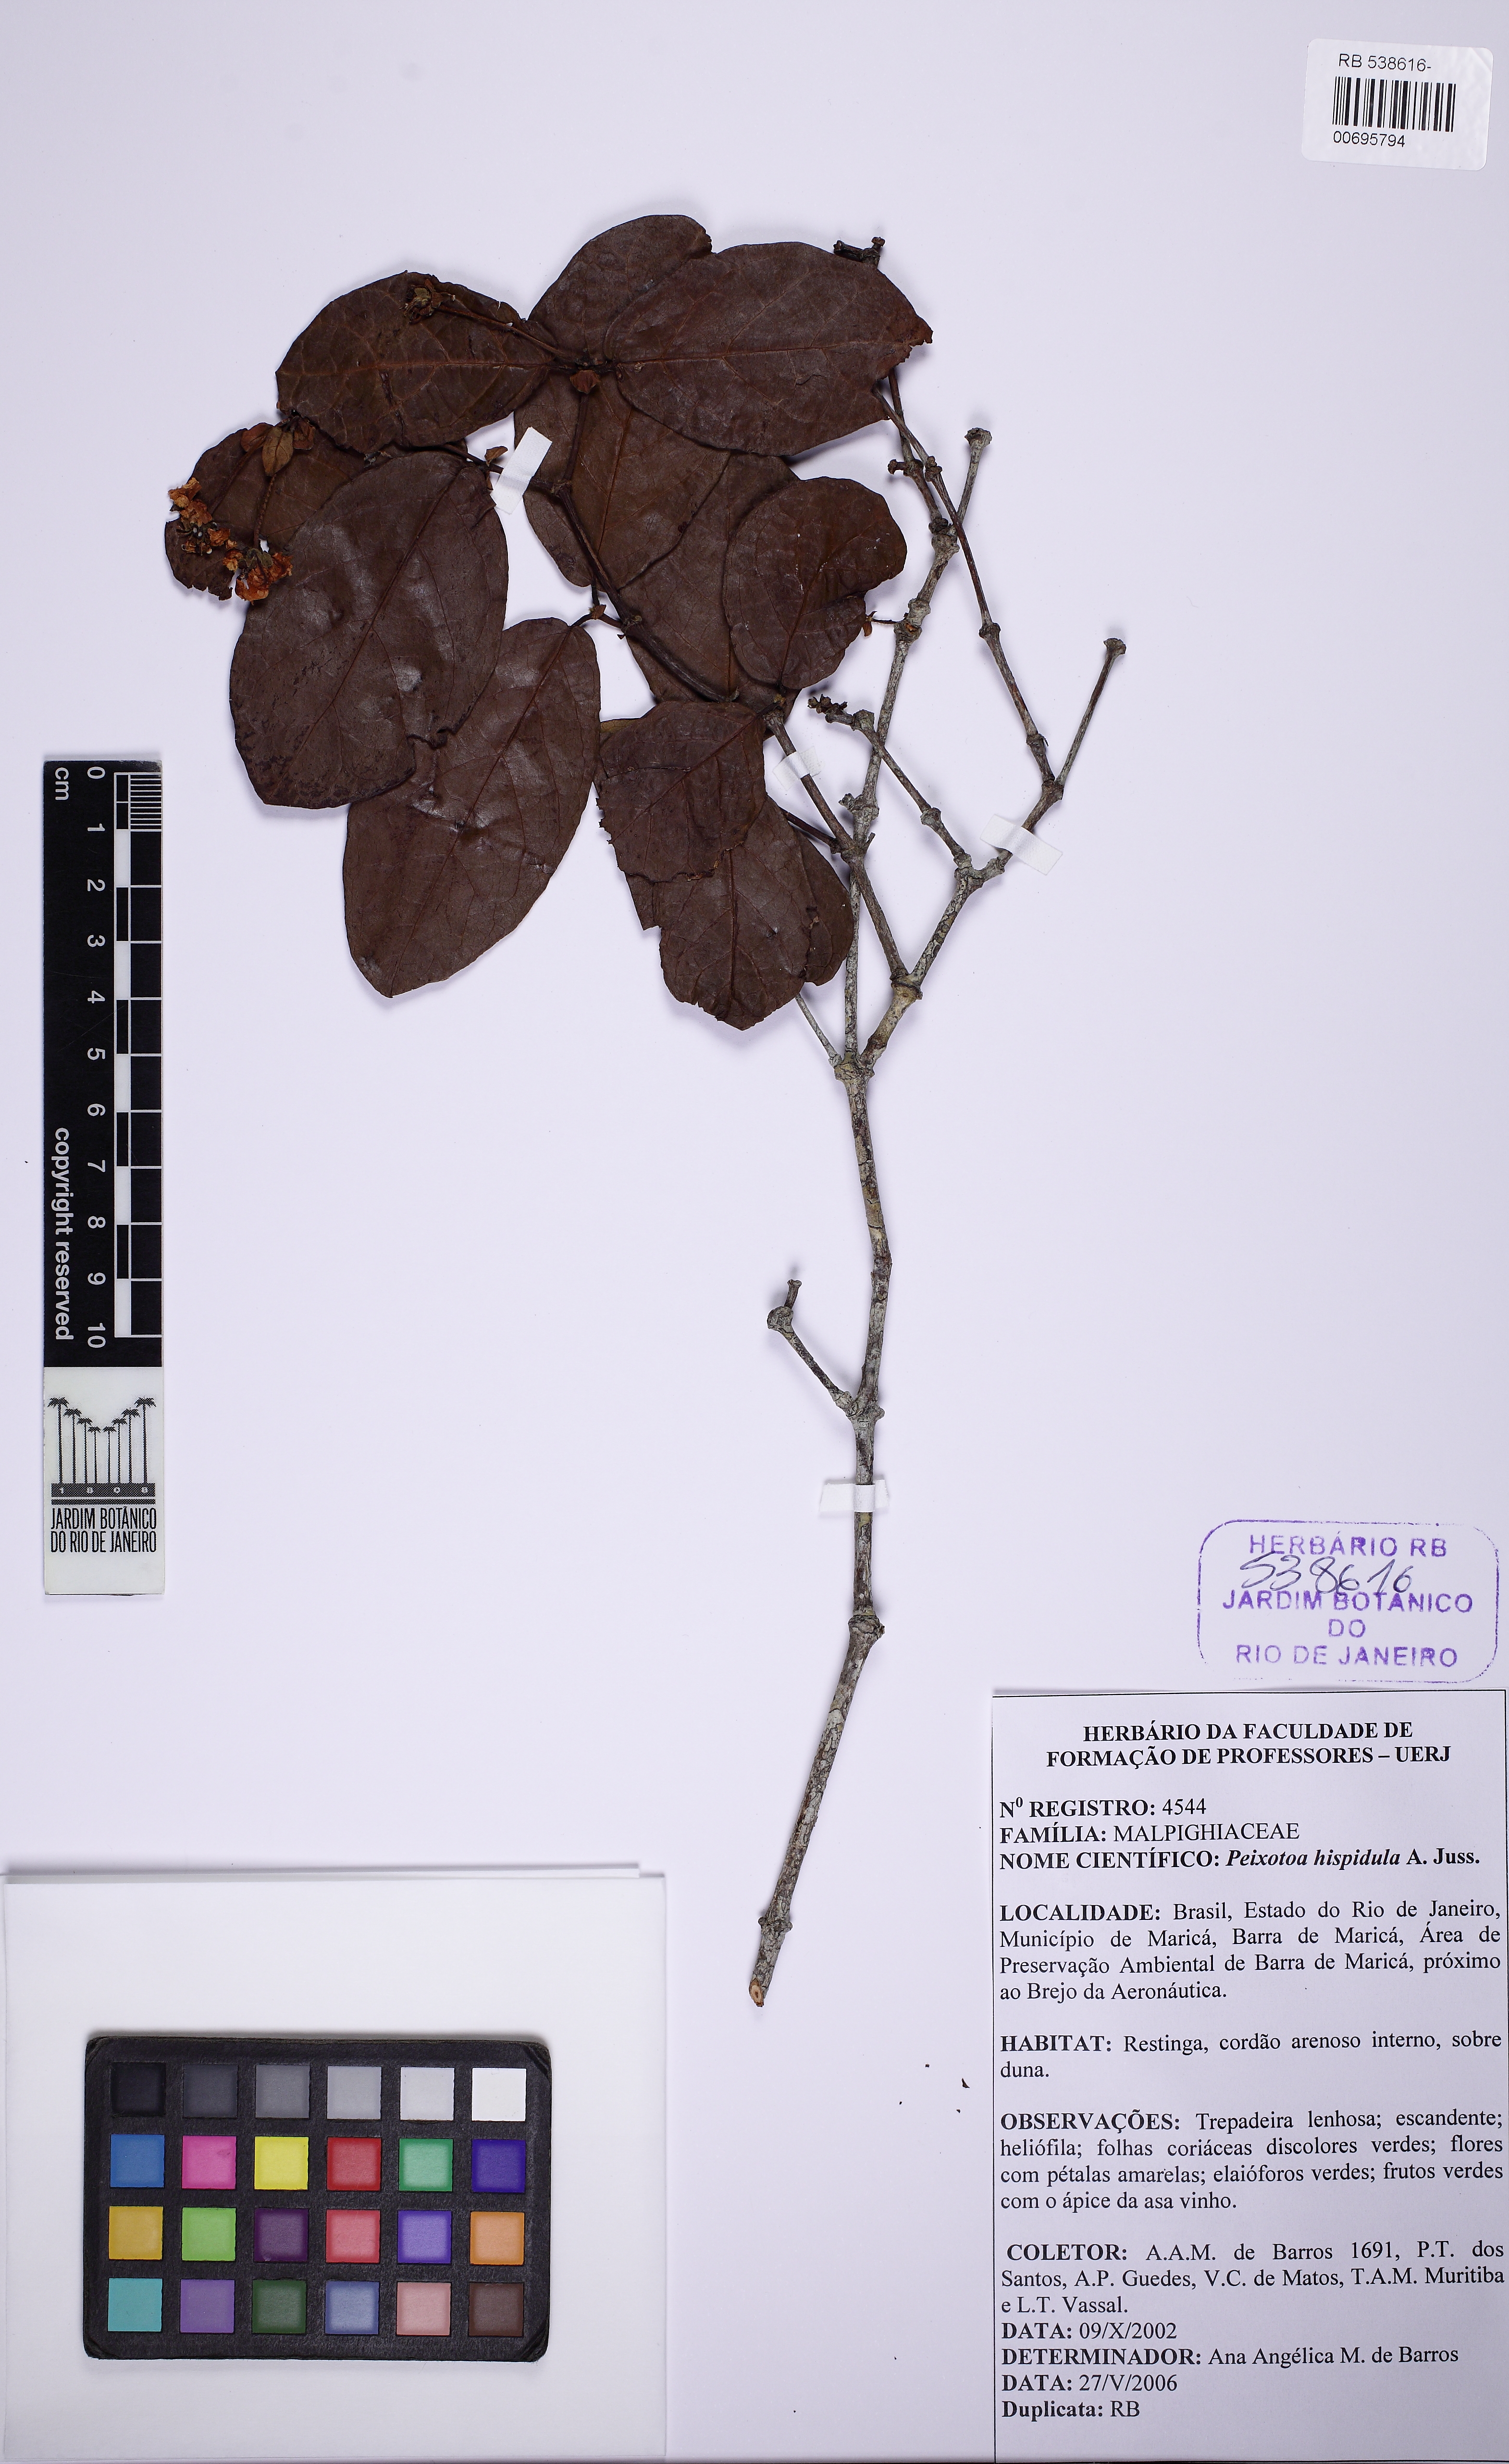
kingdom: Plantae
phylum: Tracheophyta
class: Magnoliopsida
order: Malpighiales
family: Malpighiaceae
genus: Peixotoa
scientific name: Peixotoa hispidula
